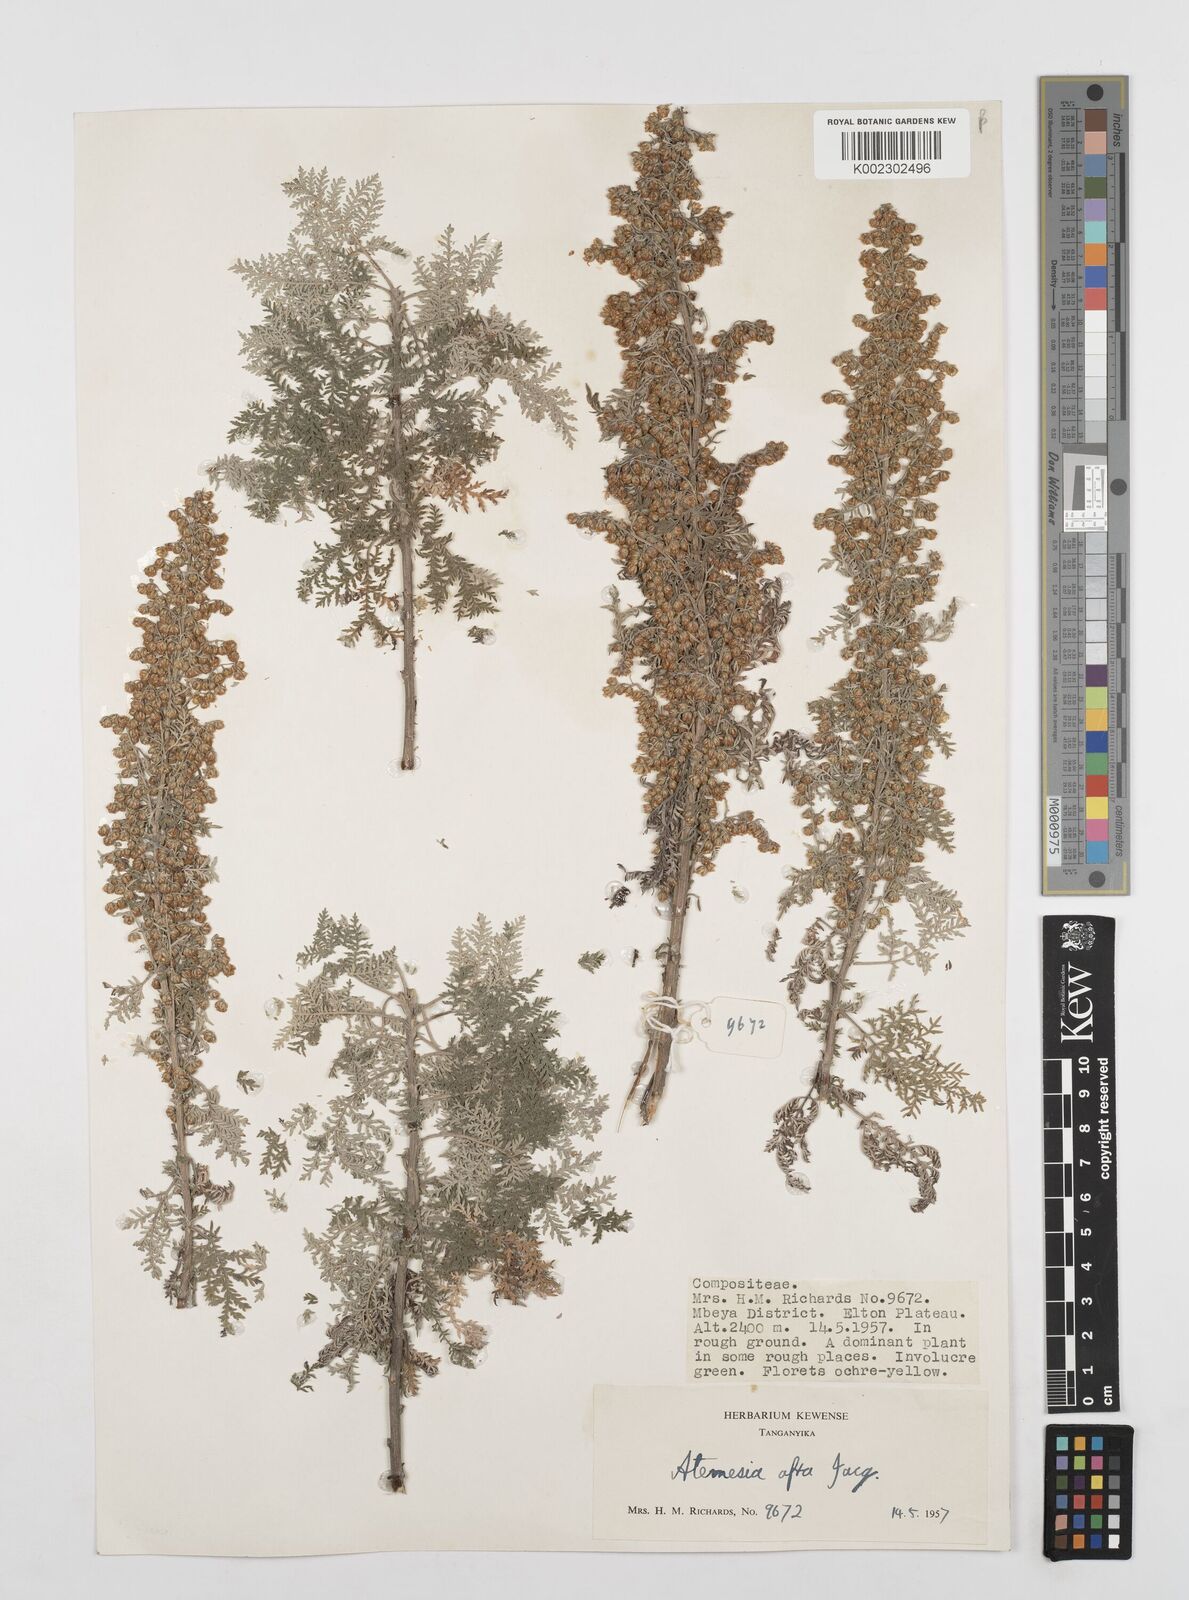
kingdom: Plantae
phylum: Tracheophyta
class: Magnoliopsida
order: Asterales
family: Asteraceae
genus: Artemisia
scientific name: Artemisia afra
